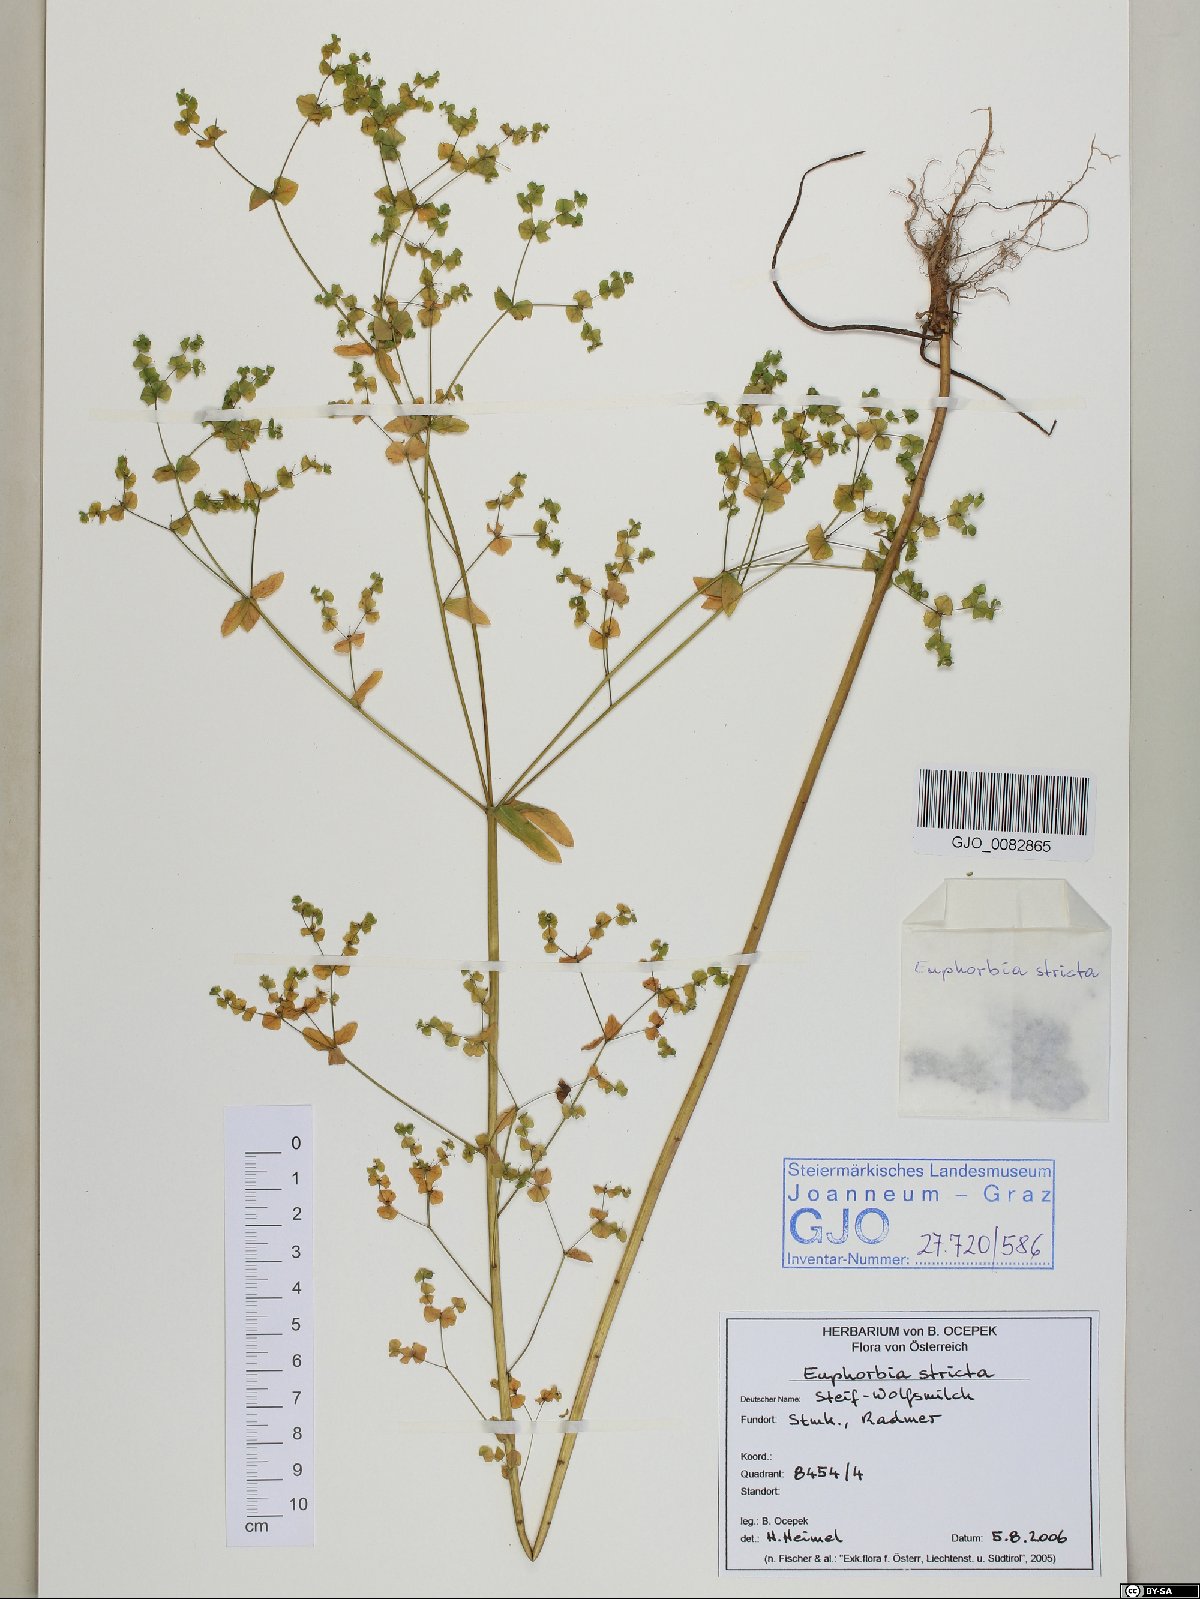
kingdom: Plantae
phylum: Tracheophyta
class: Magnoliopsida
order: Malpighiales
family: Euphorbiaceae
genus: Euphorbia
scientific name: Euphorbia stricta
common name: Upright spurge
